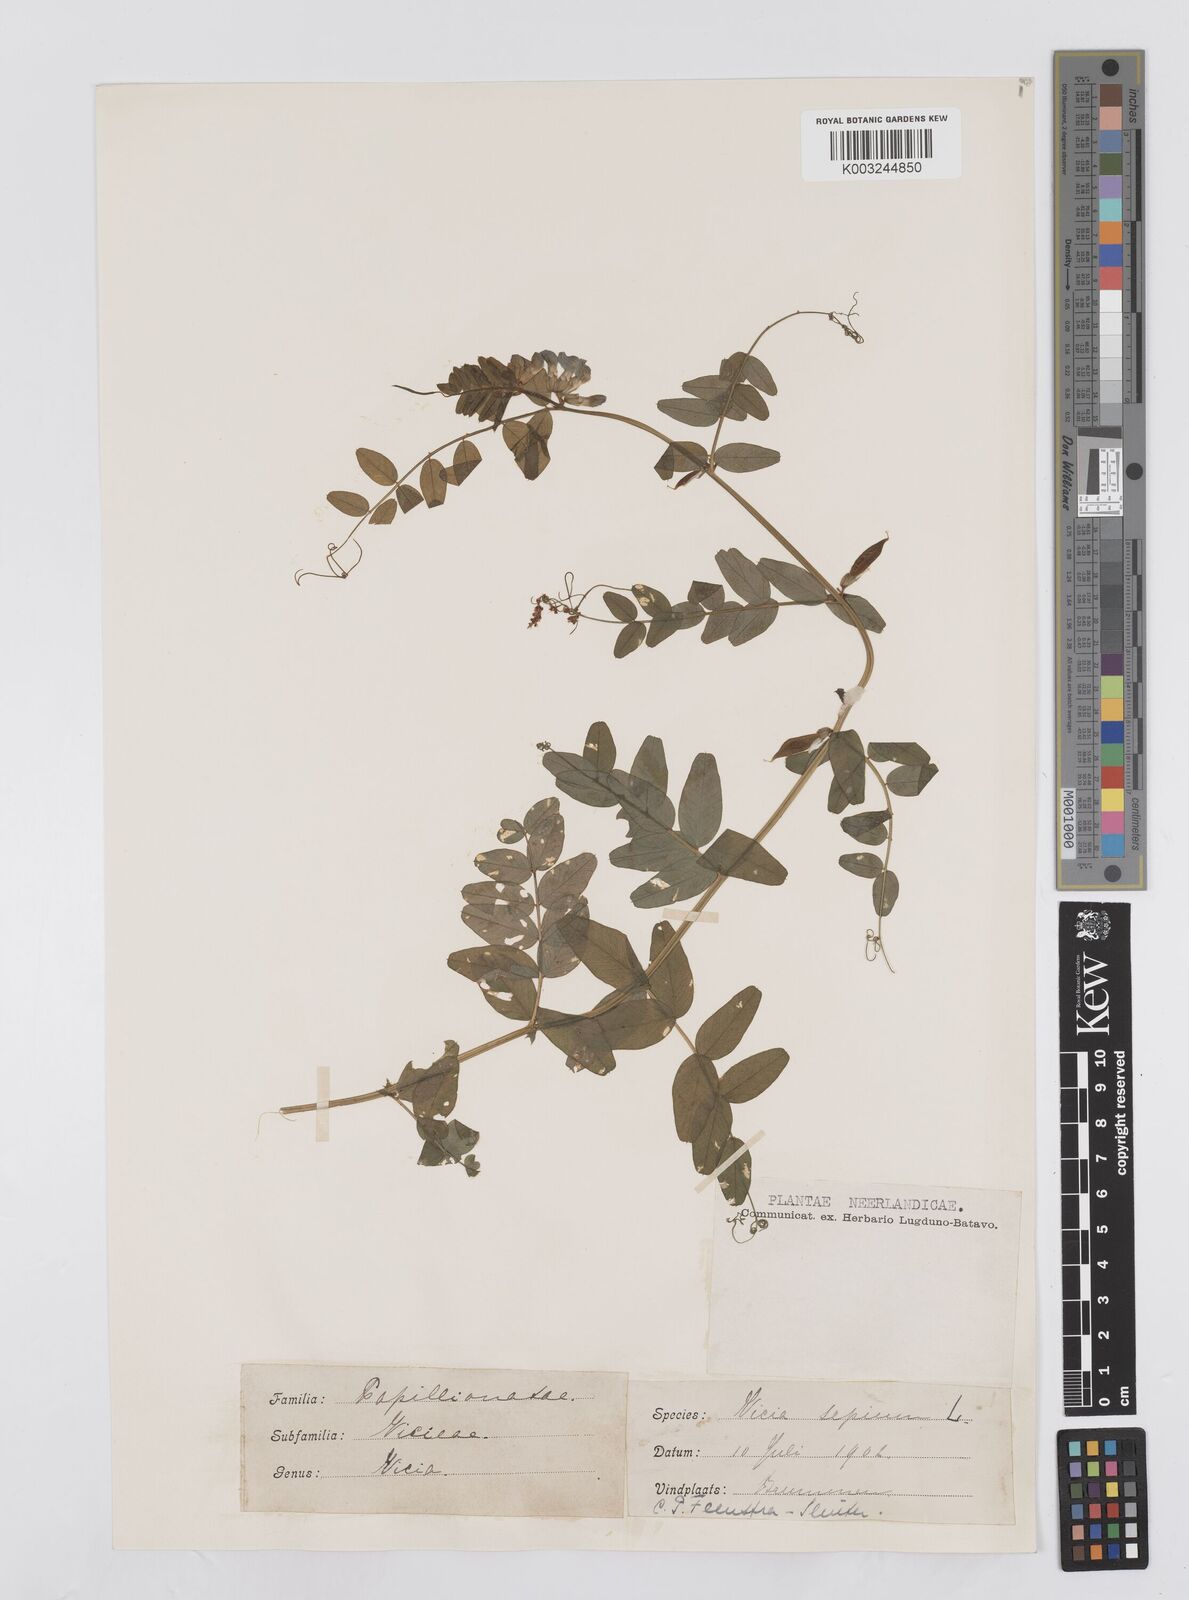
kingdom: Plantae
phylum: Tracheophyta
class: Magnoliopsida
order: Fabales
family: Fabaceae
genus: Vicia
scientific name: Vicia sepium
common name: Bush vetch
